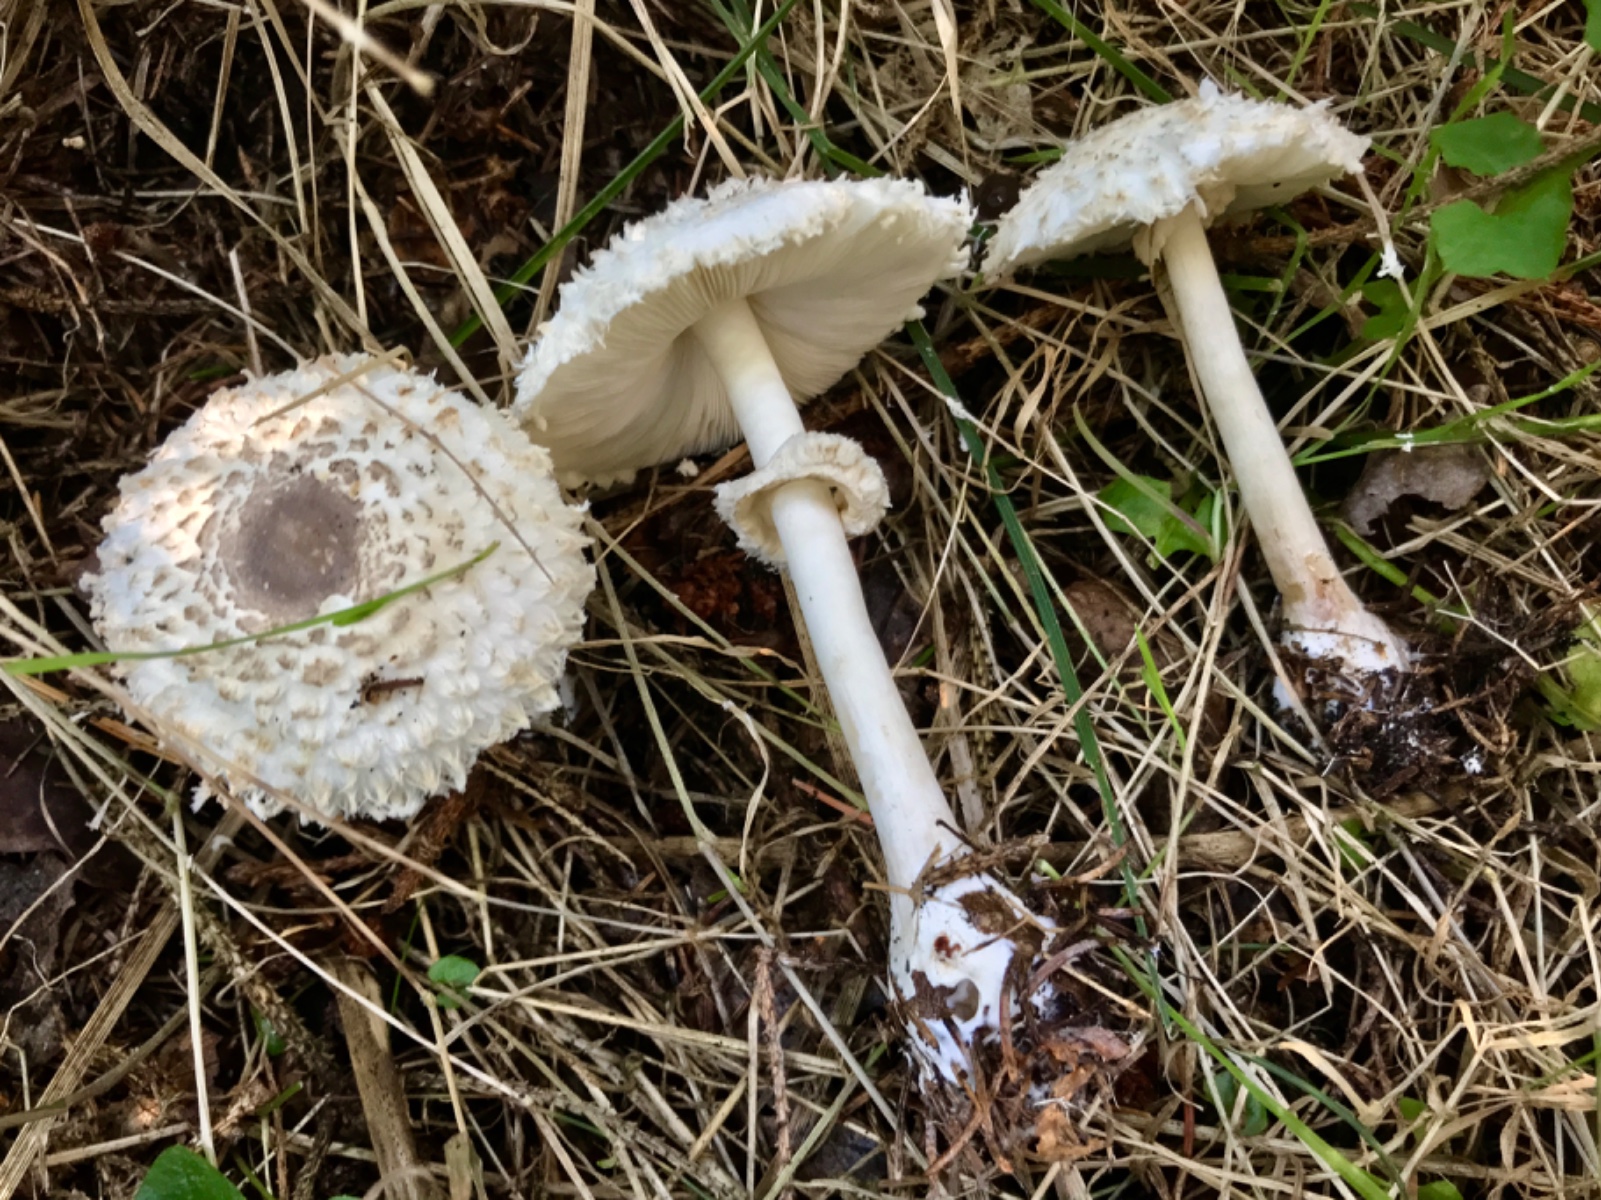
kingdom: Fungi
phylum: Basidiomycota
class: Agaricomycetes
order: Agaricales
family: Agaricaceae
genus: Leucoagaricus
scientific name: Leucoagaricus nympharum
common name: gran-silkehat
